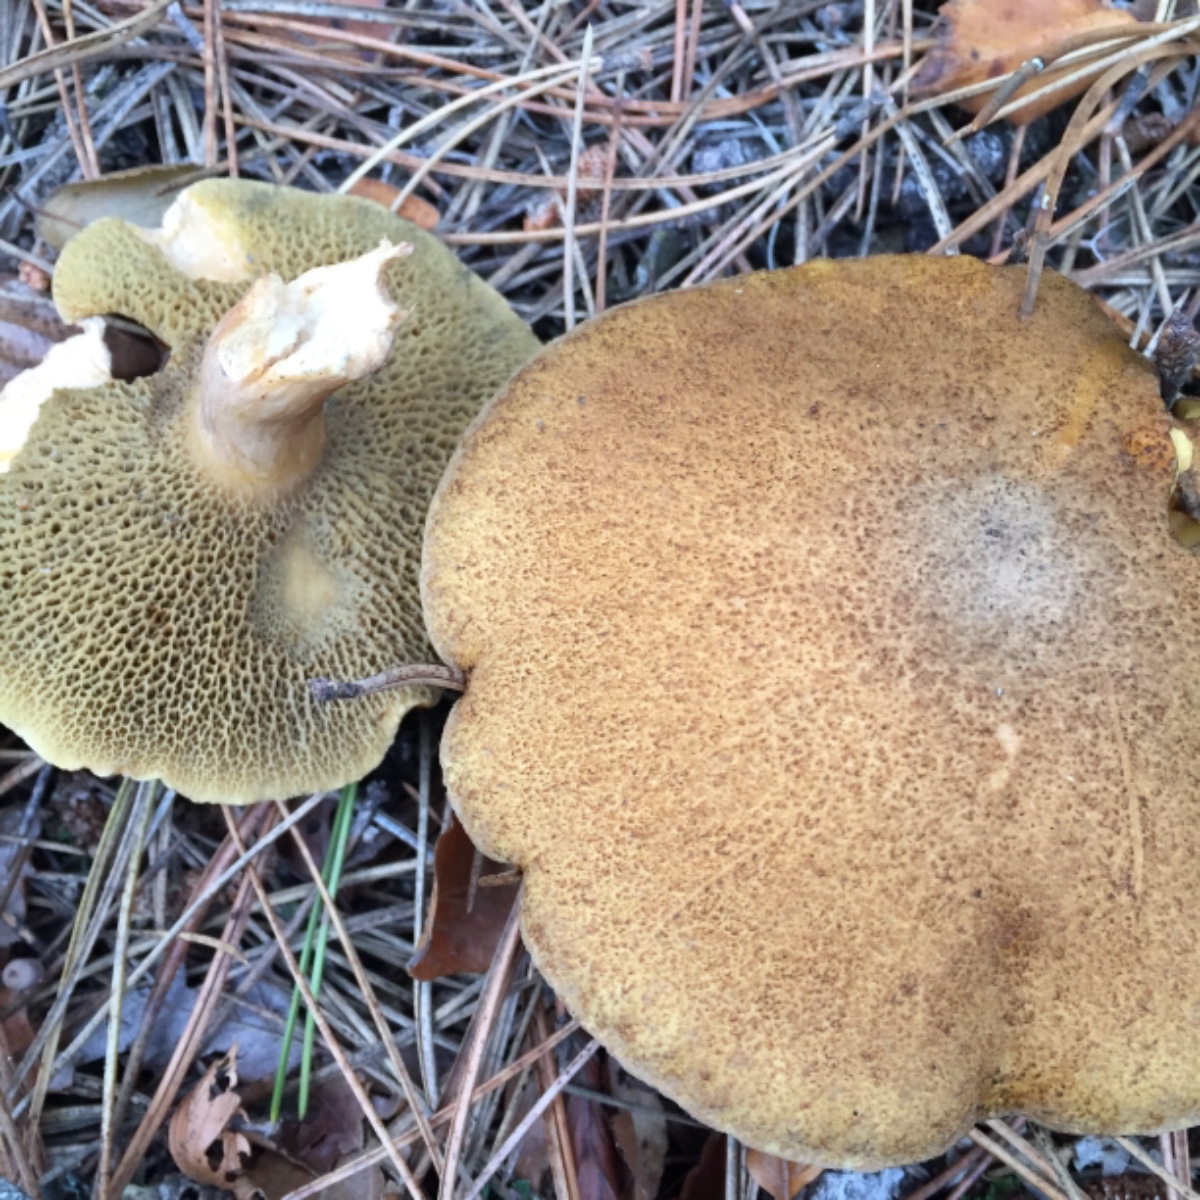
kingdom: Fungi
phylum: Basidiomycota
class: Agaricomycetes
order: Boletales
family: Suillaceae
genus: Suillus
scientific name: Suillus bovinus
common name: grovporet slimrørhat
